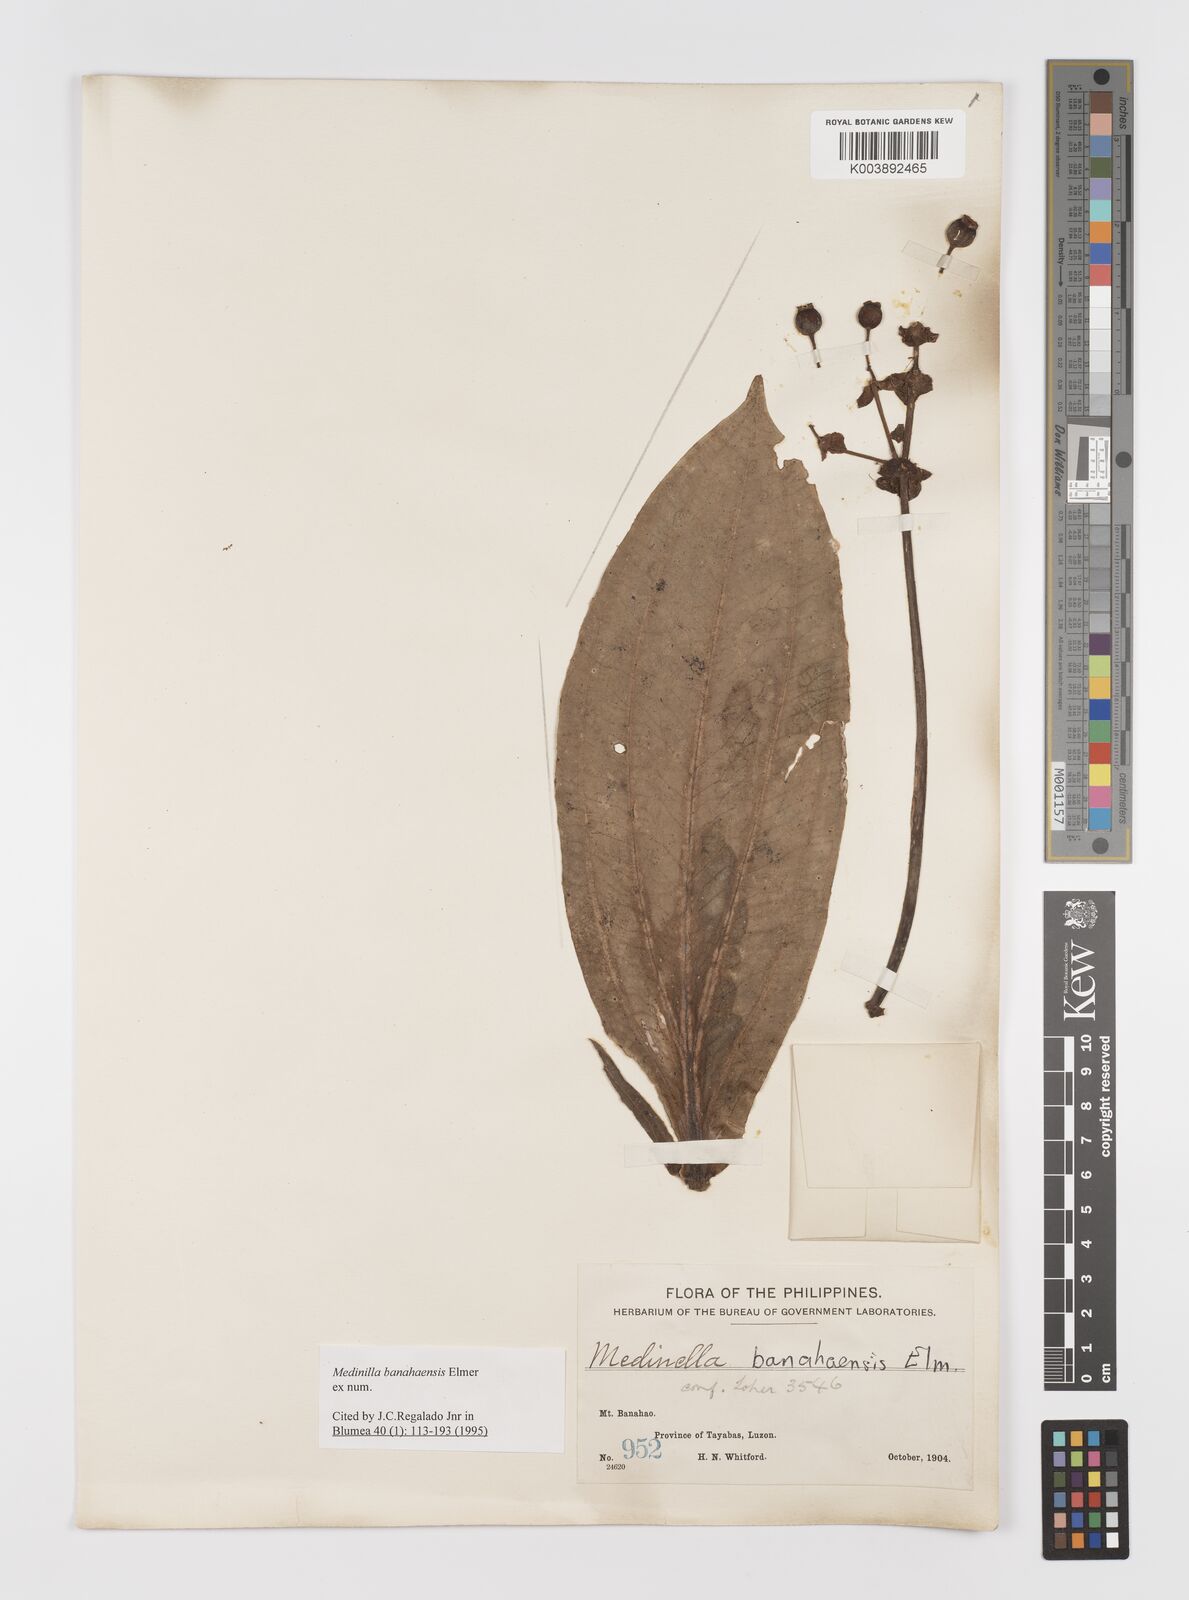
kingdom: Plantae
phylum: Tracheophyta
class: Magnoliopsida
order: Myrtales
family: Melastomataceae
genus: Medinilla
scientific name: Medinilla banahaensis
